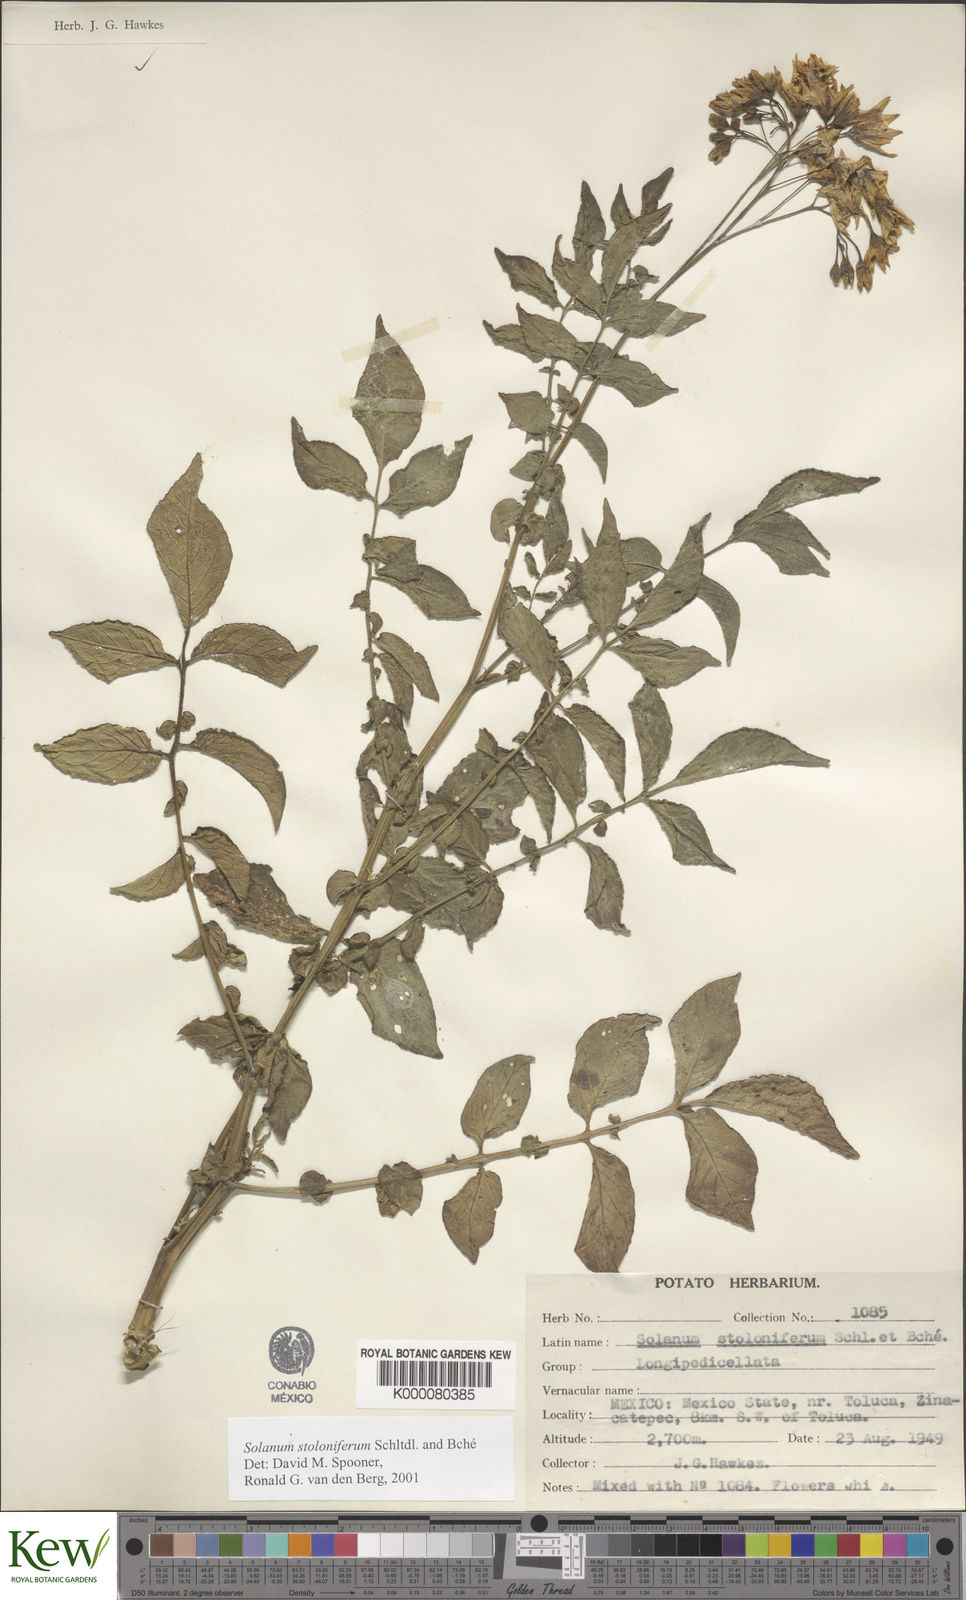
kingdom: Plantae
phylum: Tracheophyta
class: Magnoliopsida
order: Solanales
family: Solanaceae
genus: Solanum
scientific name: Solanum stoloniferum
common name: Fendler's nighshade
